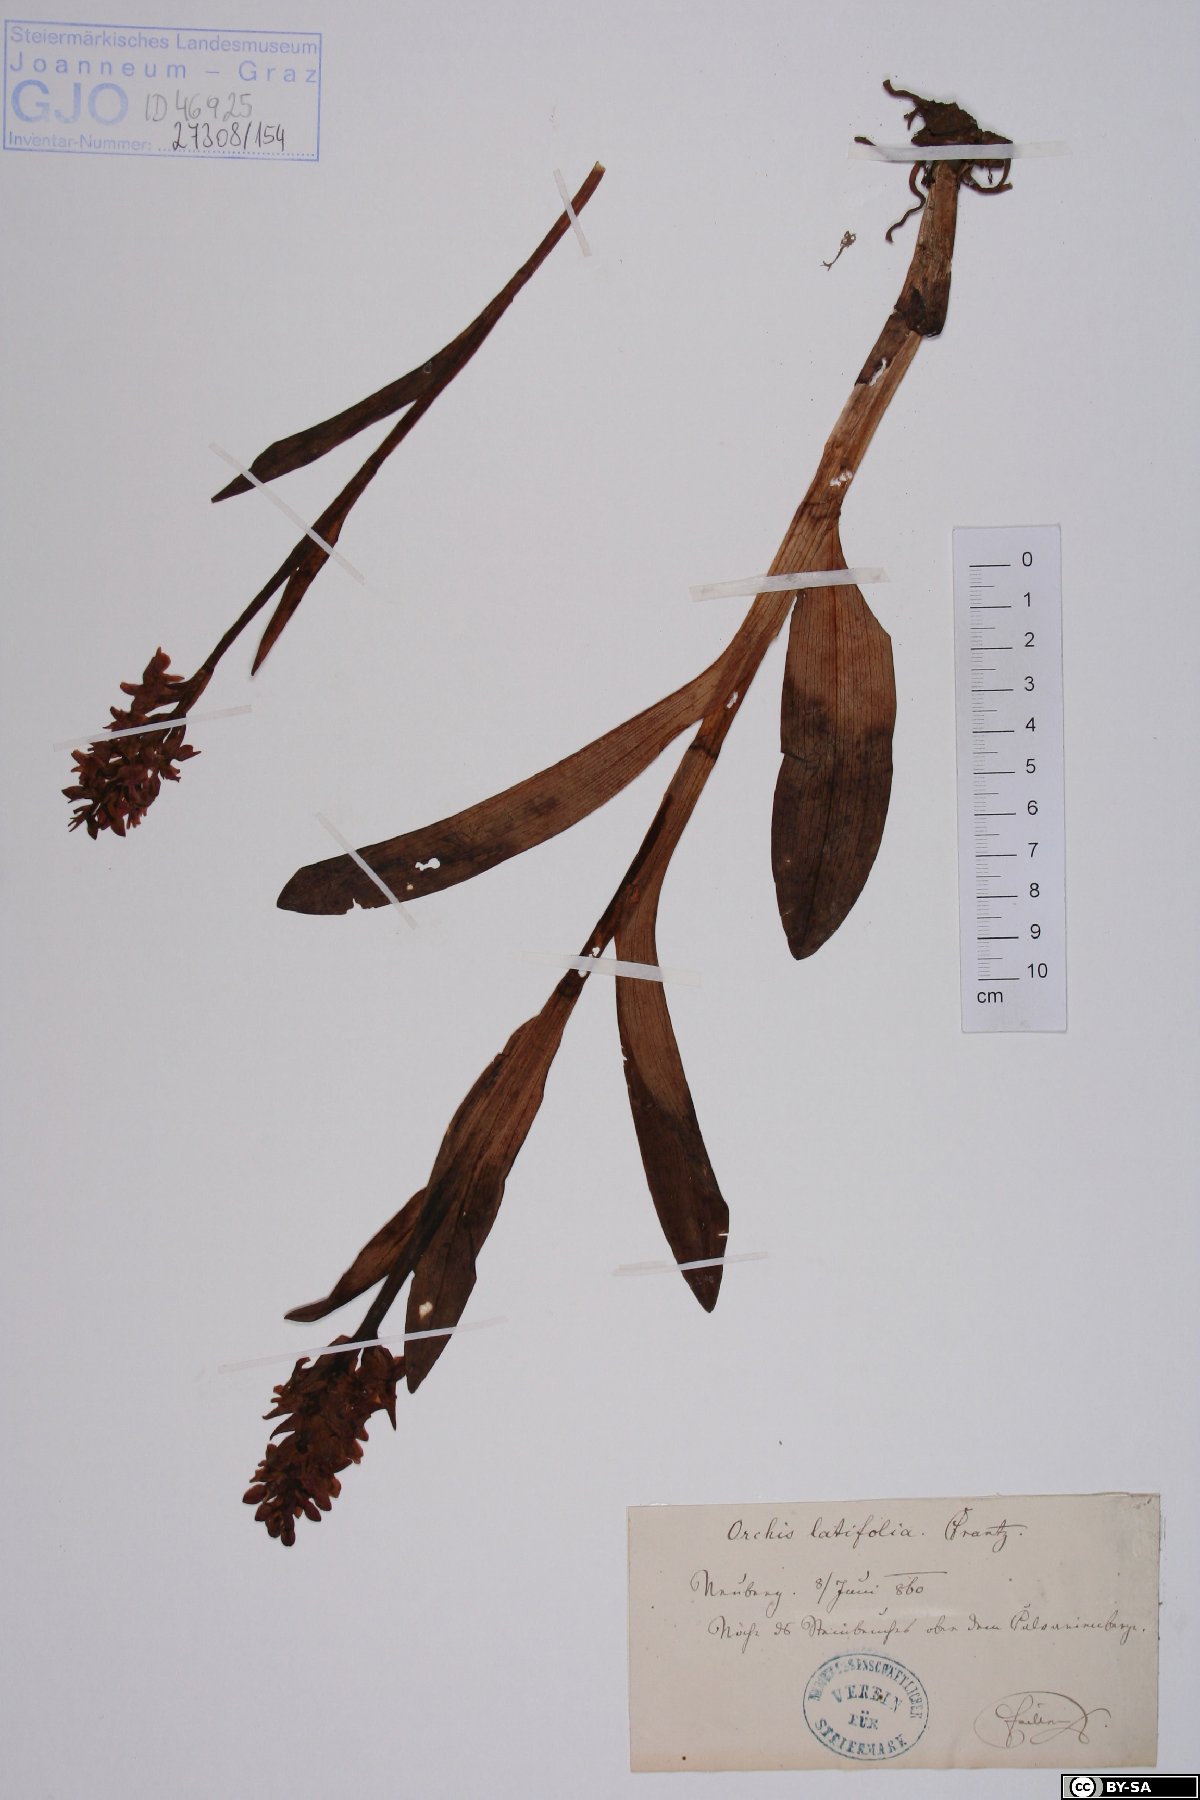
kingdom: Plantae
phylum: Tracheophyta
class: Liliopsida
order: Asparagales
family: Orchidaceae
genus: Dactylorhiza
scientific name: Dactylorhiza incarnata
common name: Early marsh-orchid
